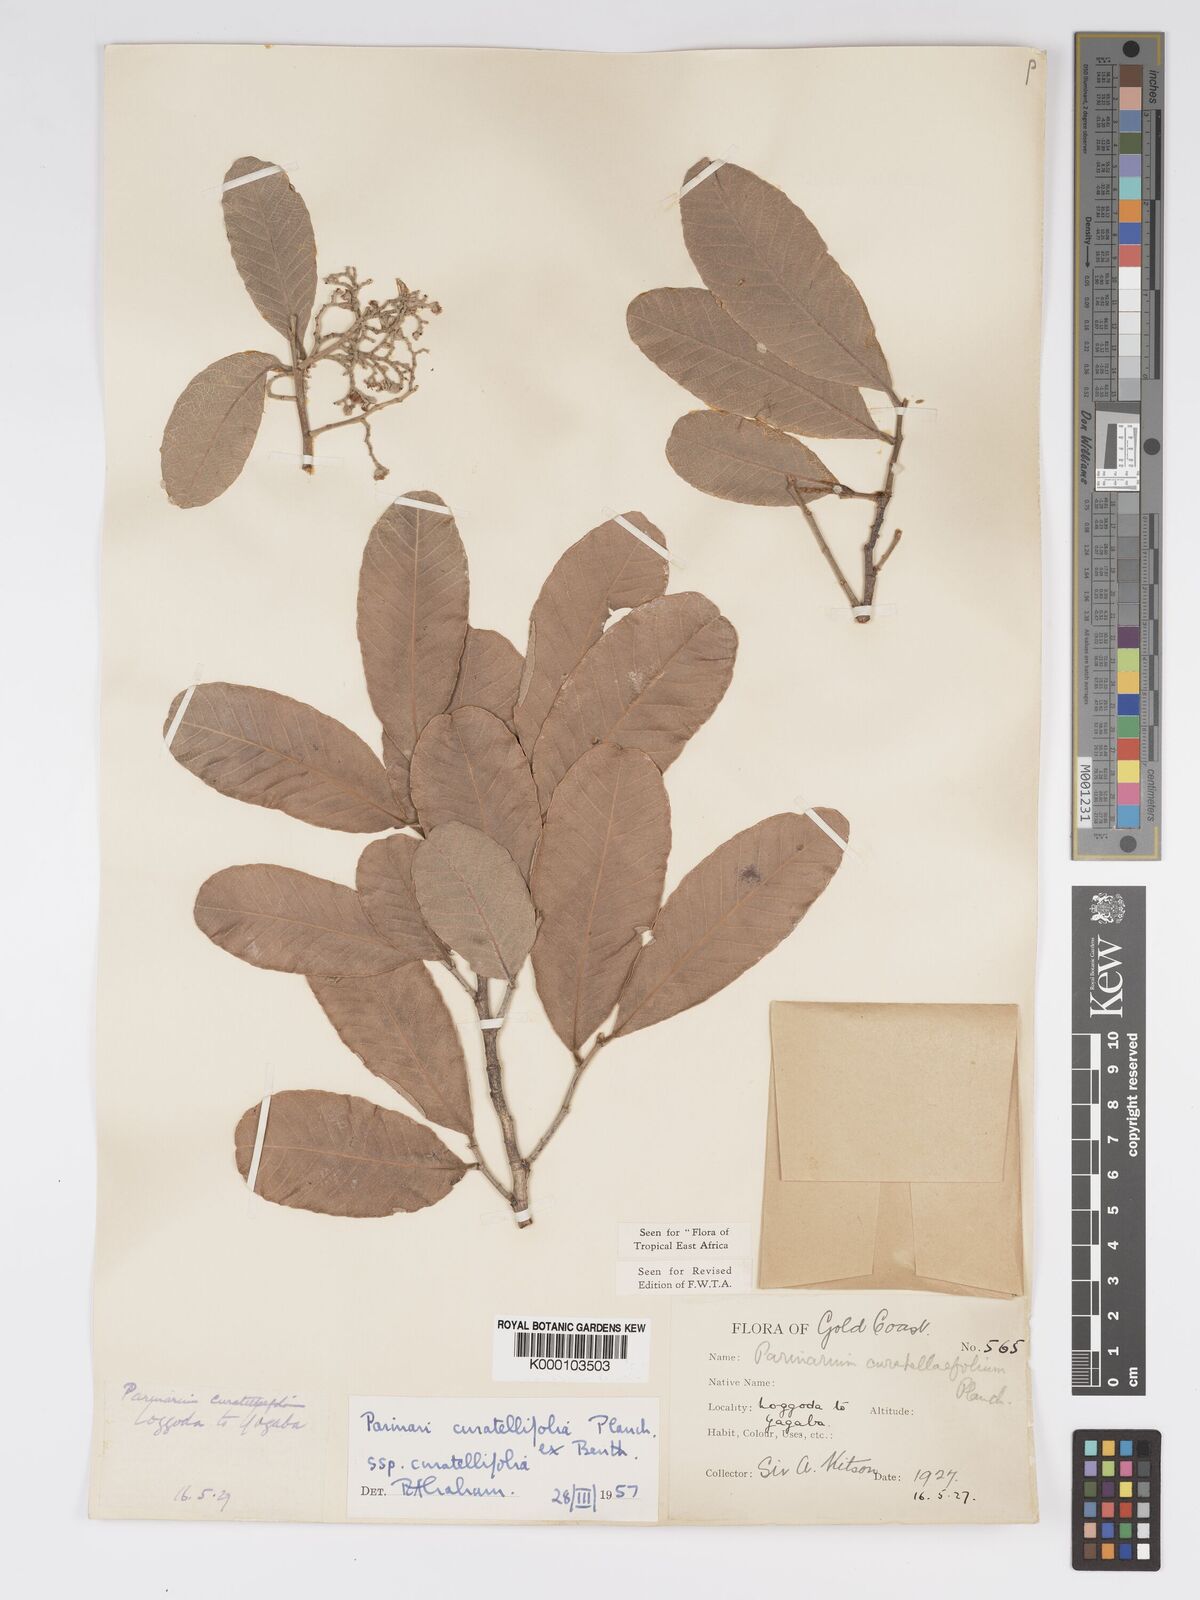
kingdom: Plantae
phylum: Tracheophyta
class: Magnoliopsida
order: Malpighiales
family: Chrysobalanaceae
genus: Parinari
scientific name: Parinari curatellifolia
